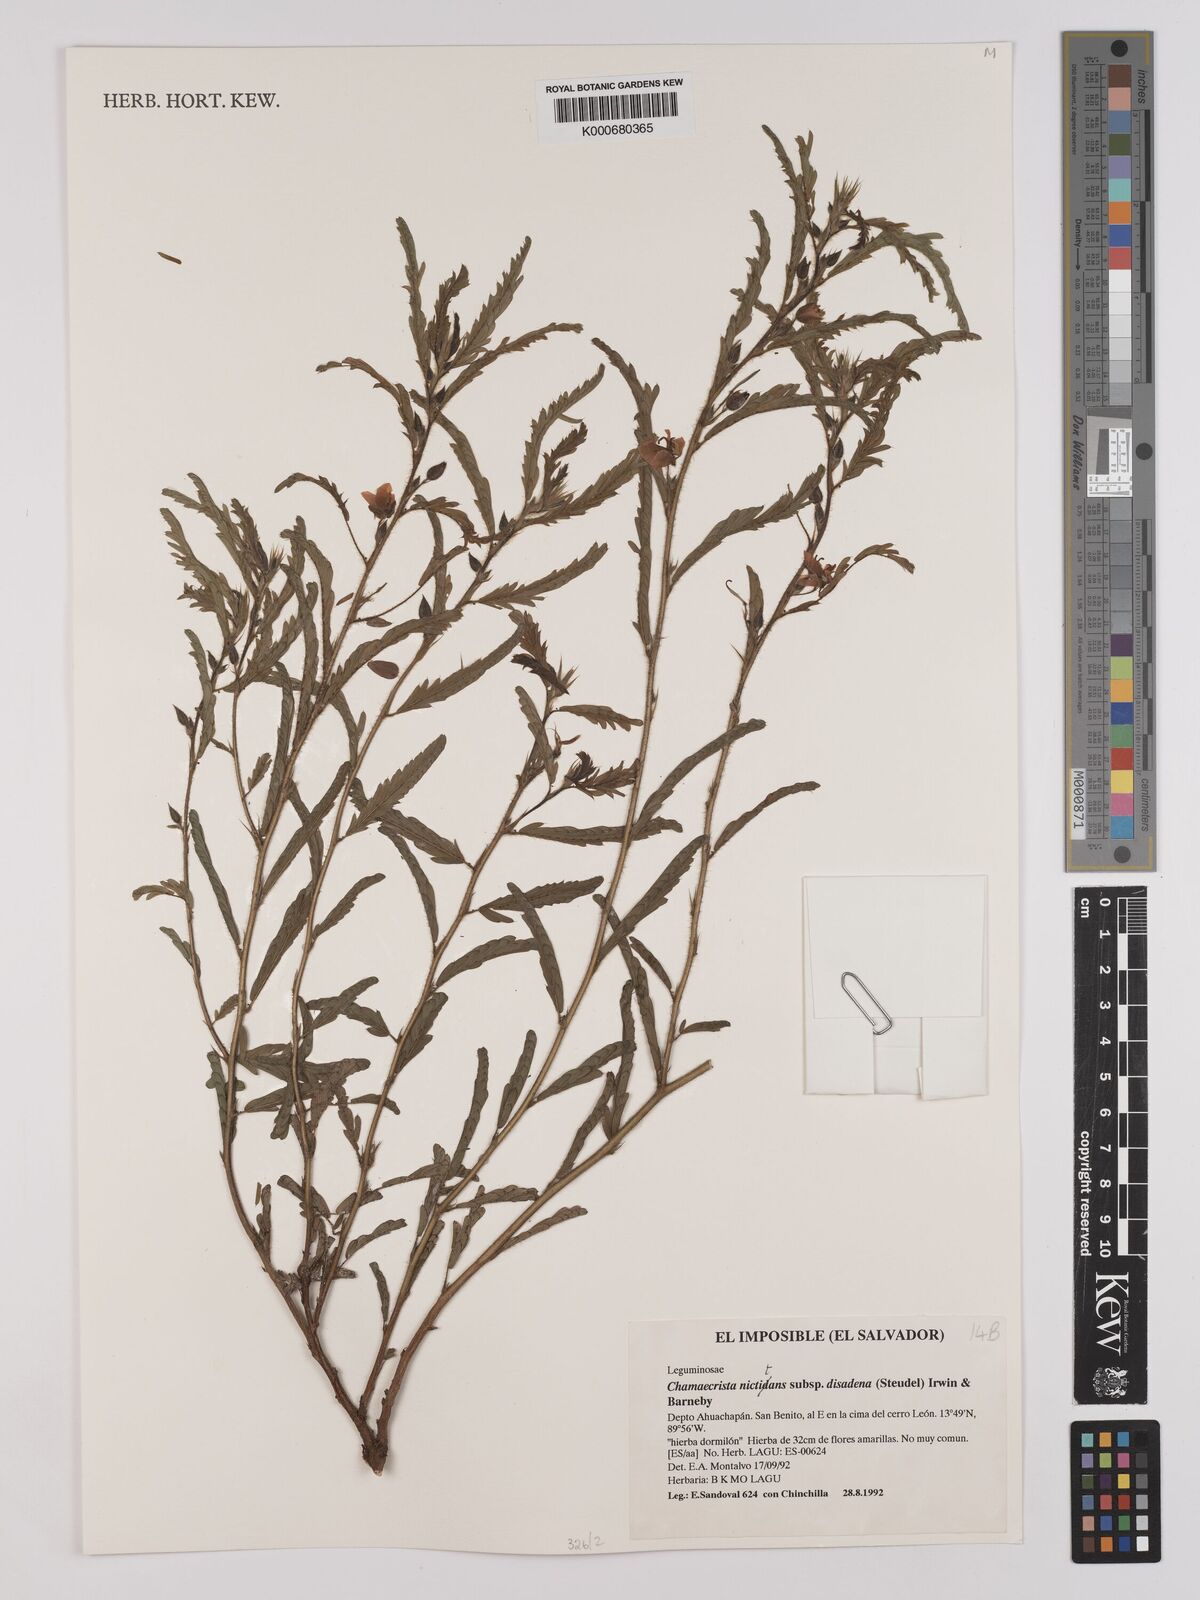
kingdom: Plantae
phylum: Tracheophyta
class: Magnoliopsida
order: Fabales
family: Fabaceae
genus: Chamaecrista
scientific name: Chamaecrista nictitans
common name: Sensitive cassia
